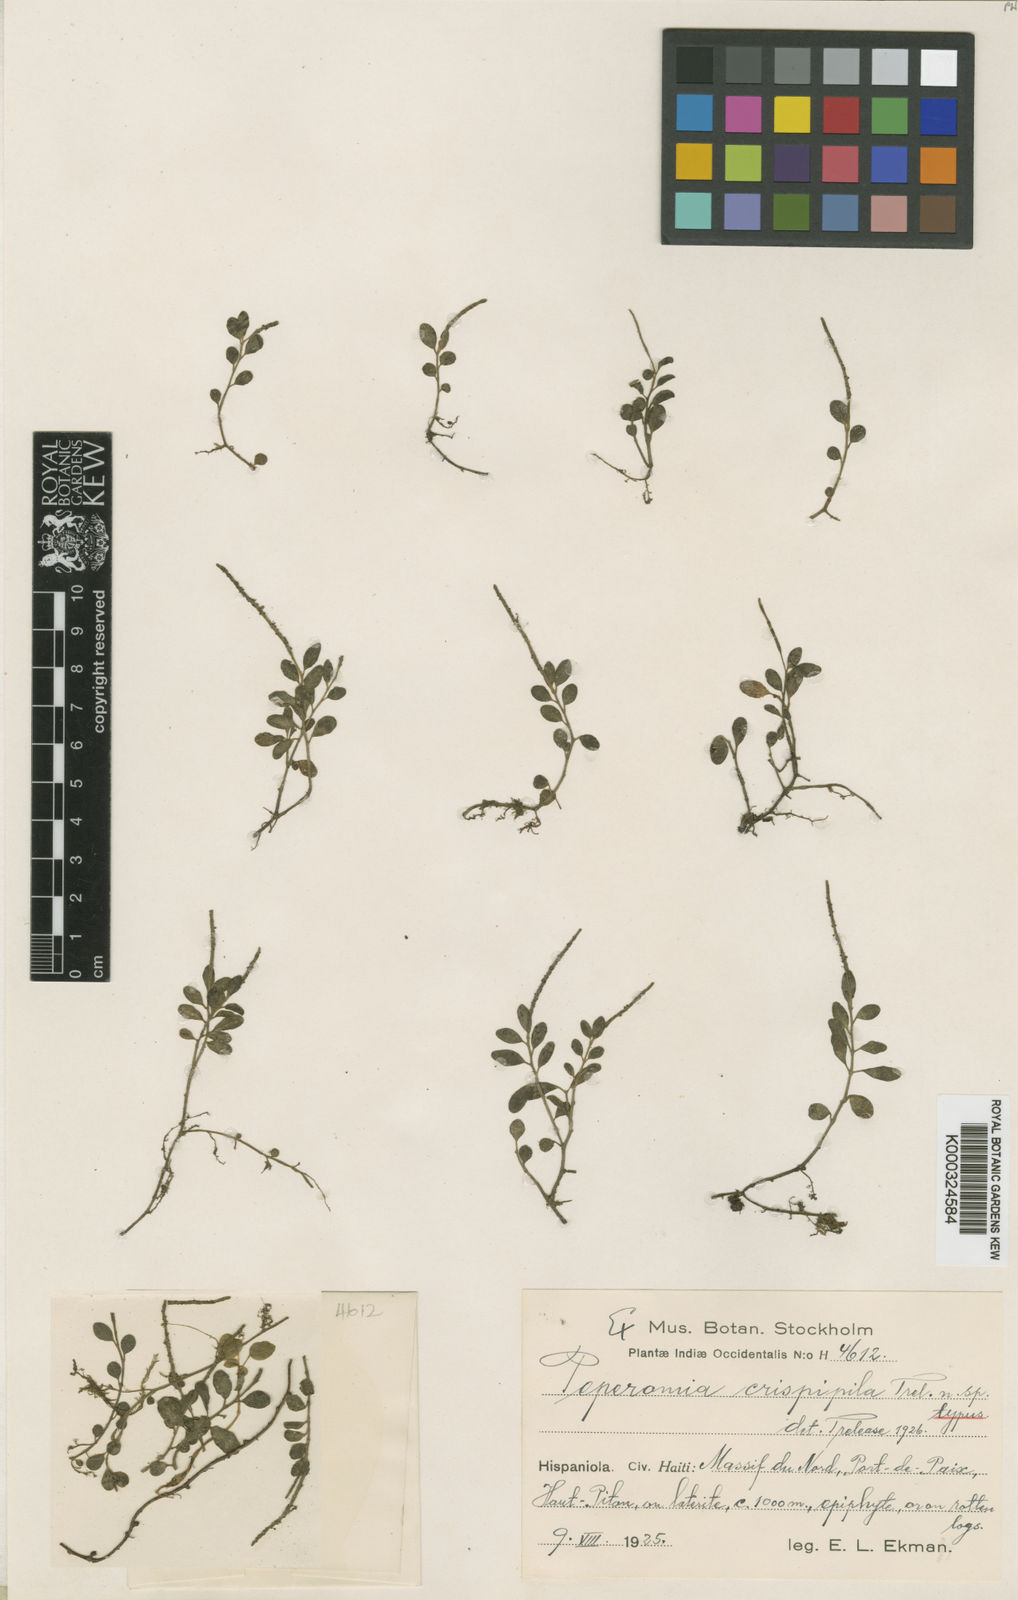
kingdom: Plantae
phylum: Tracheophyta
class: Magnoliopsida
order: Piperales
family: Piperaceae
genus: Peperomia
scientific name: Peperomia cogniauxii
